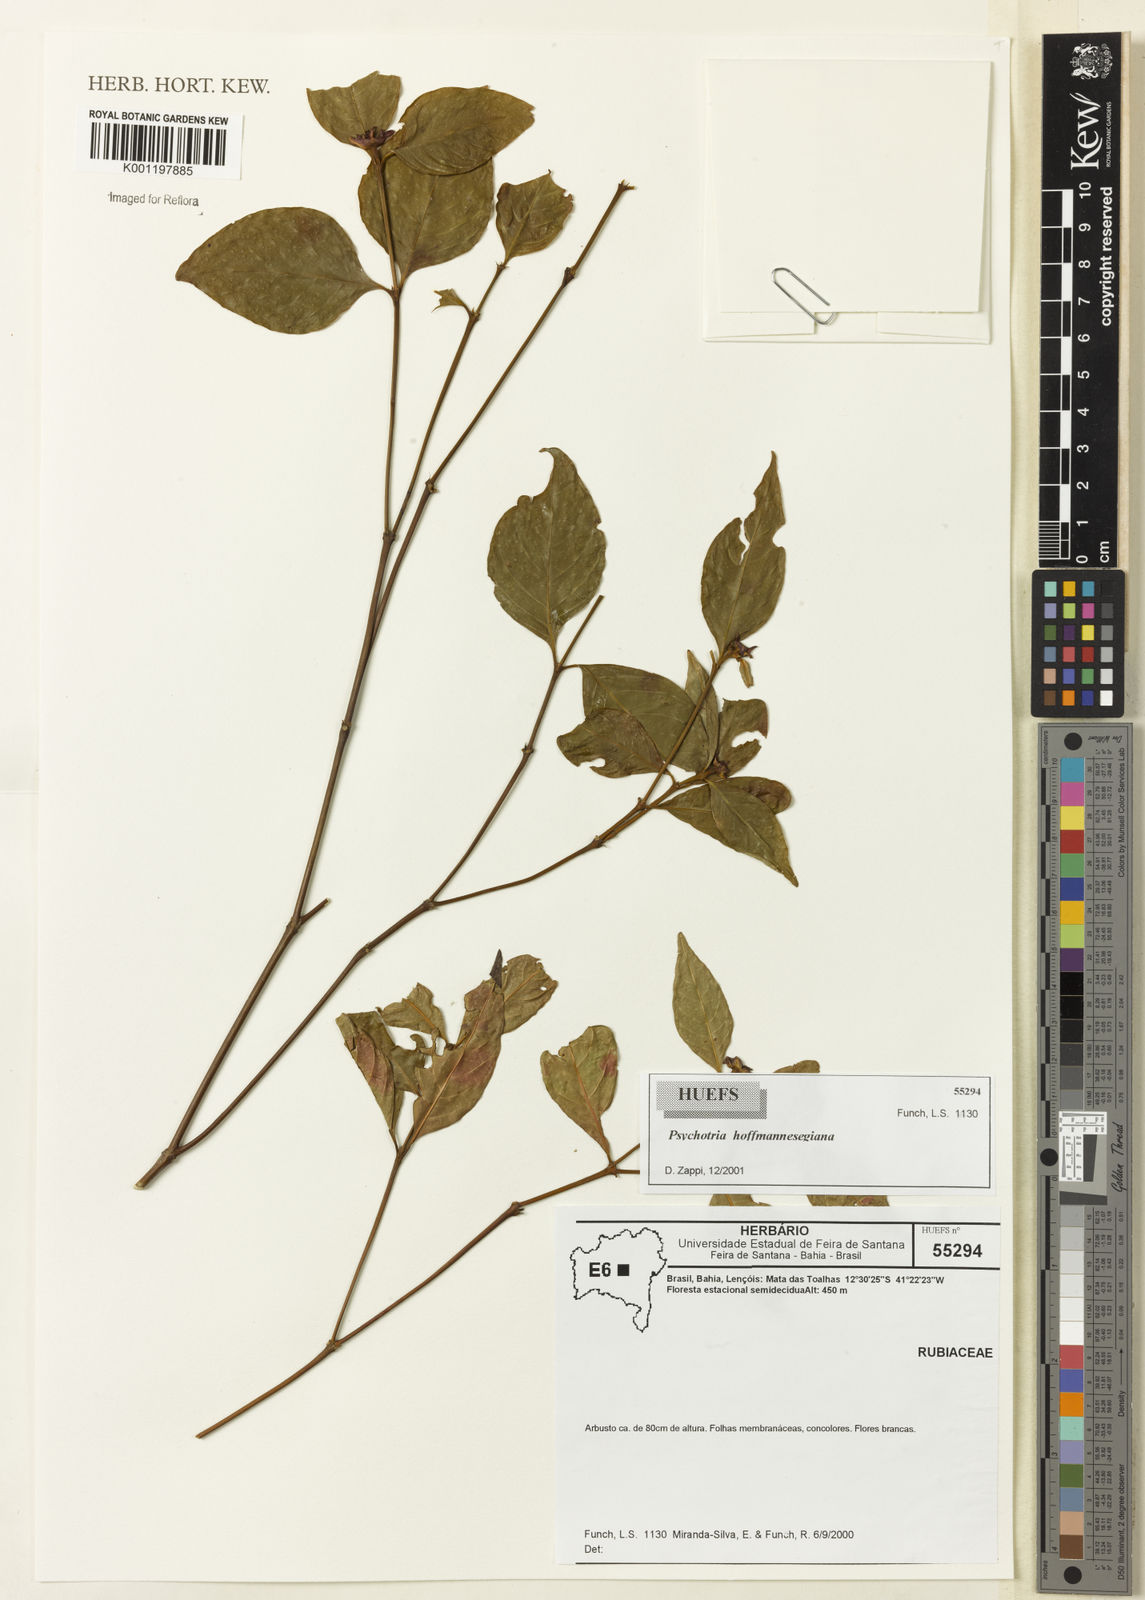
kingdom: Plantae
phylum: Tracheophyta
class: Magnoliopsida
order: Gentianales
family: Rubiaceae
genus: Psychotria
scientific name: Psychotria
